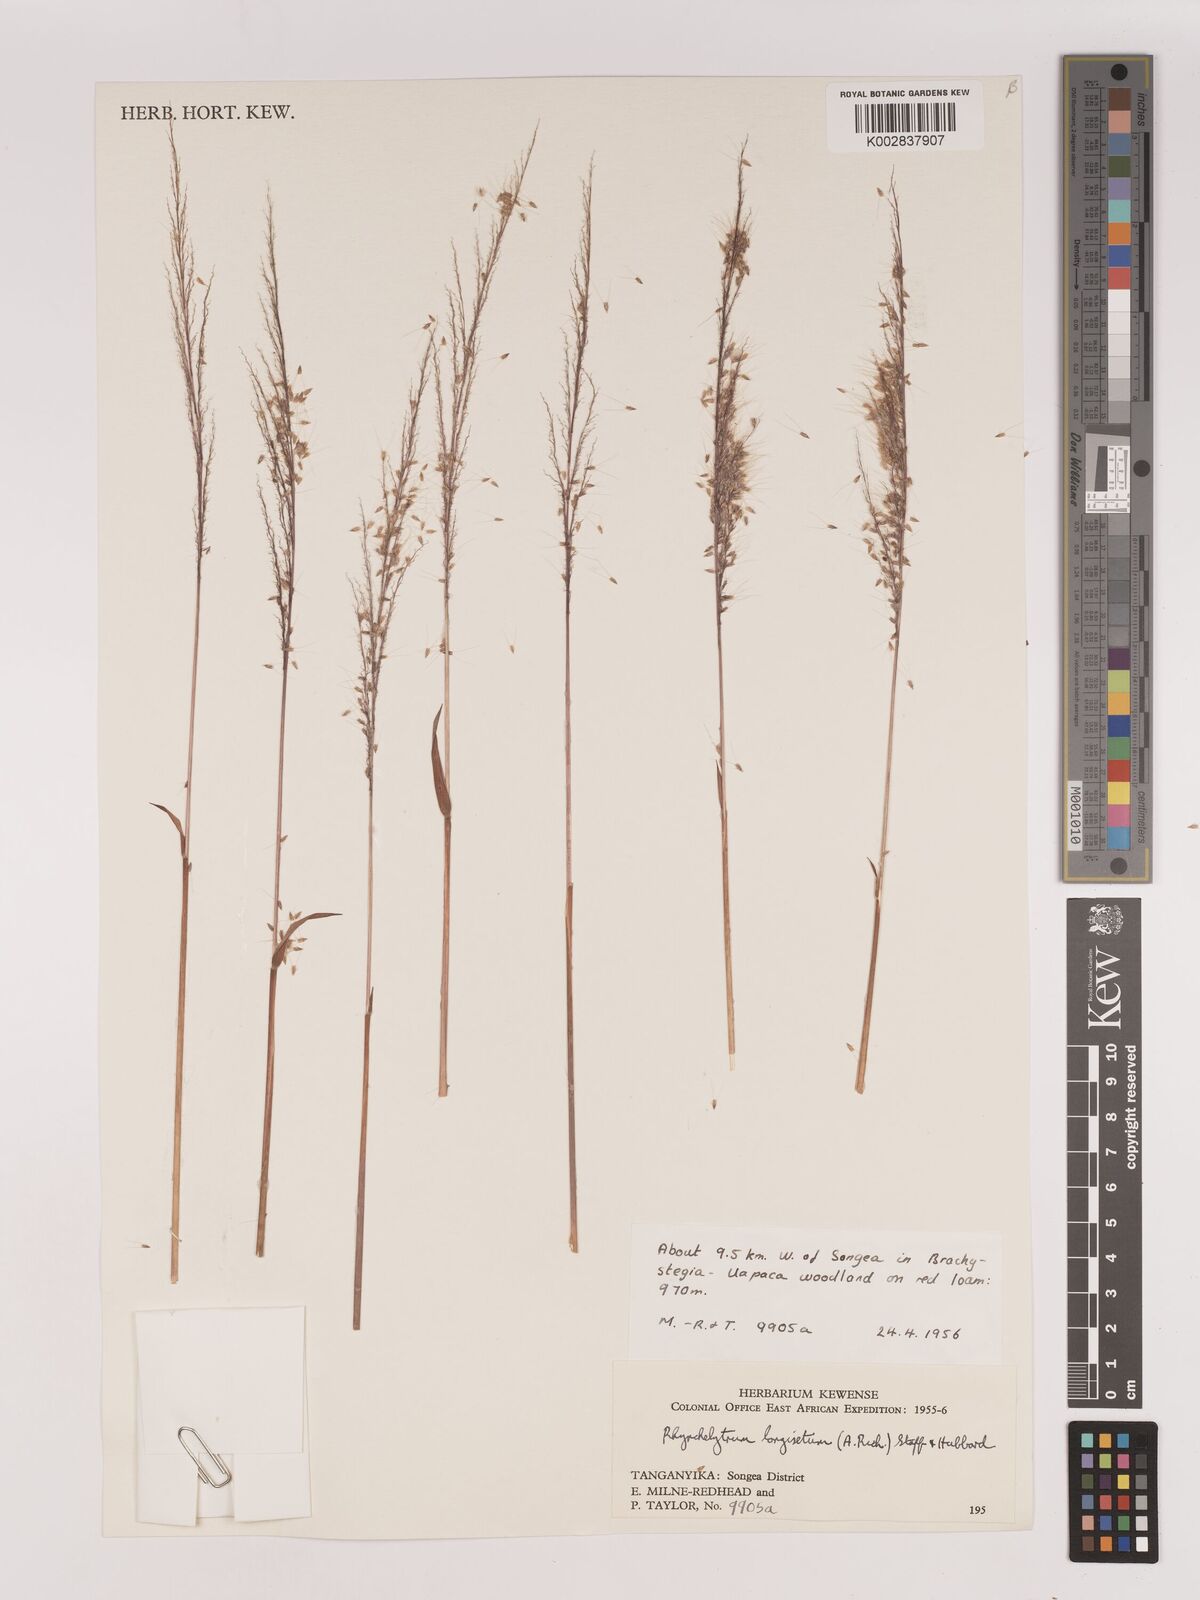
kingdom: Plantae
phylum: Tracheophyta
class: Liliopsida
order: Poales
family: Poaceae
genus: Melinis
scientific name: Melinis longiseta
